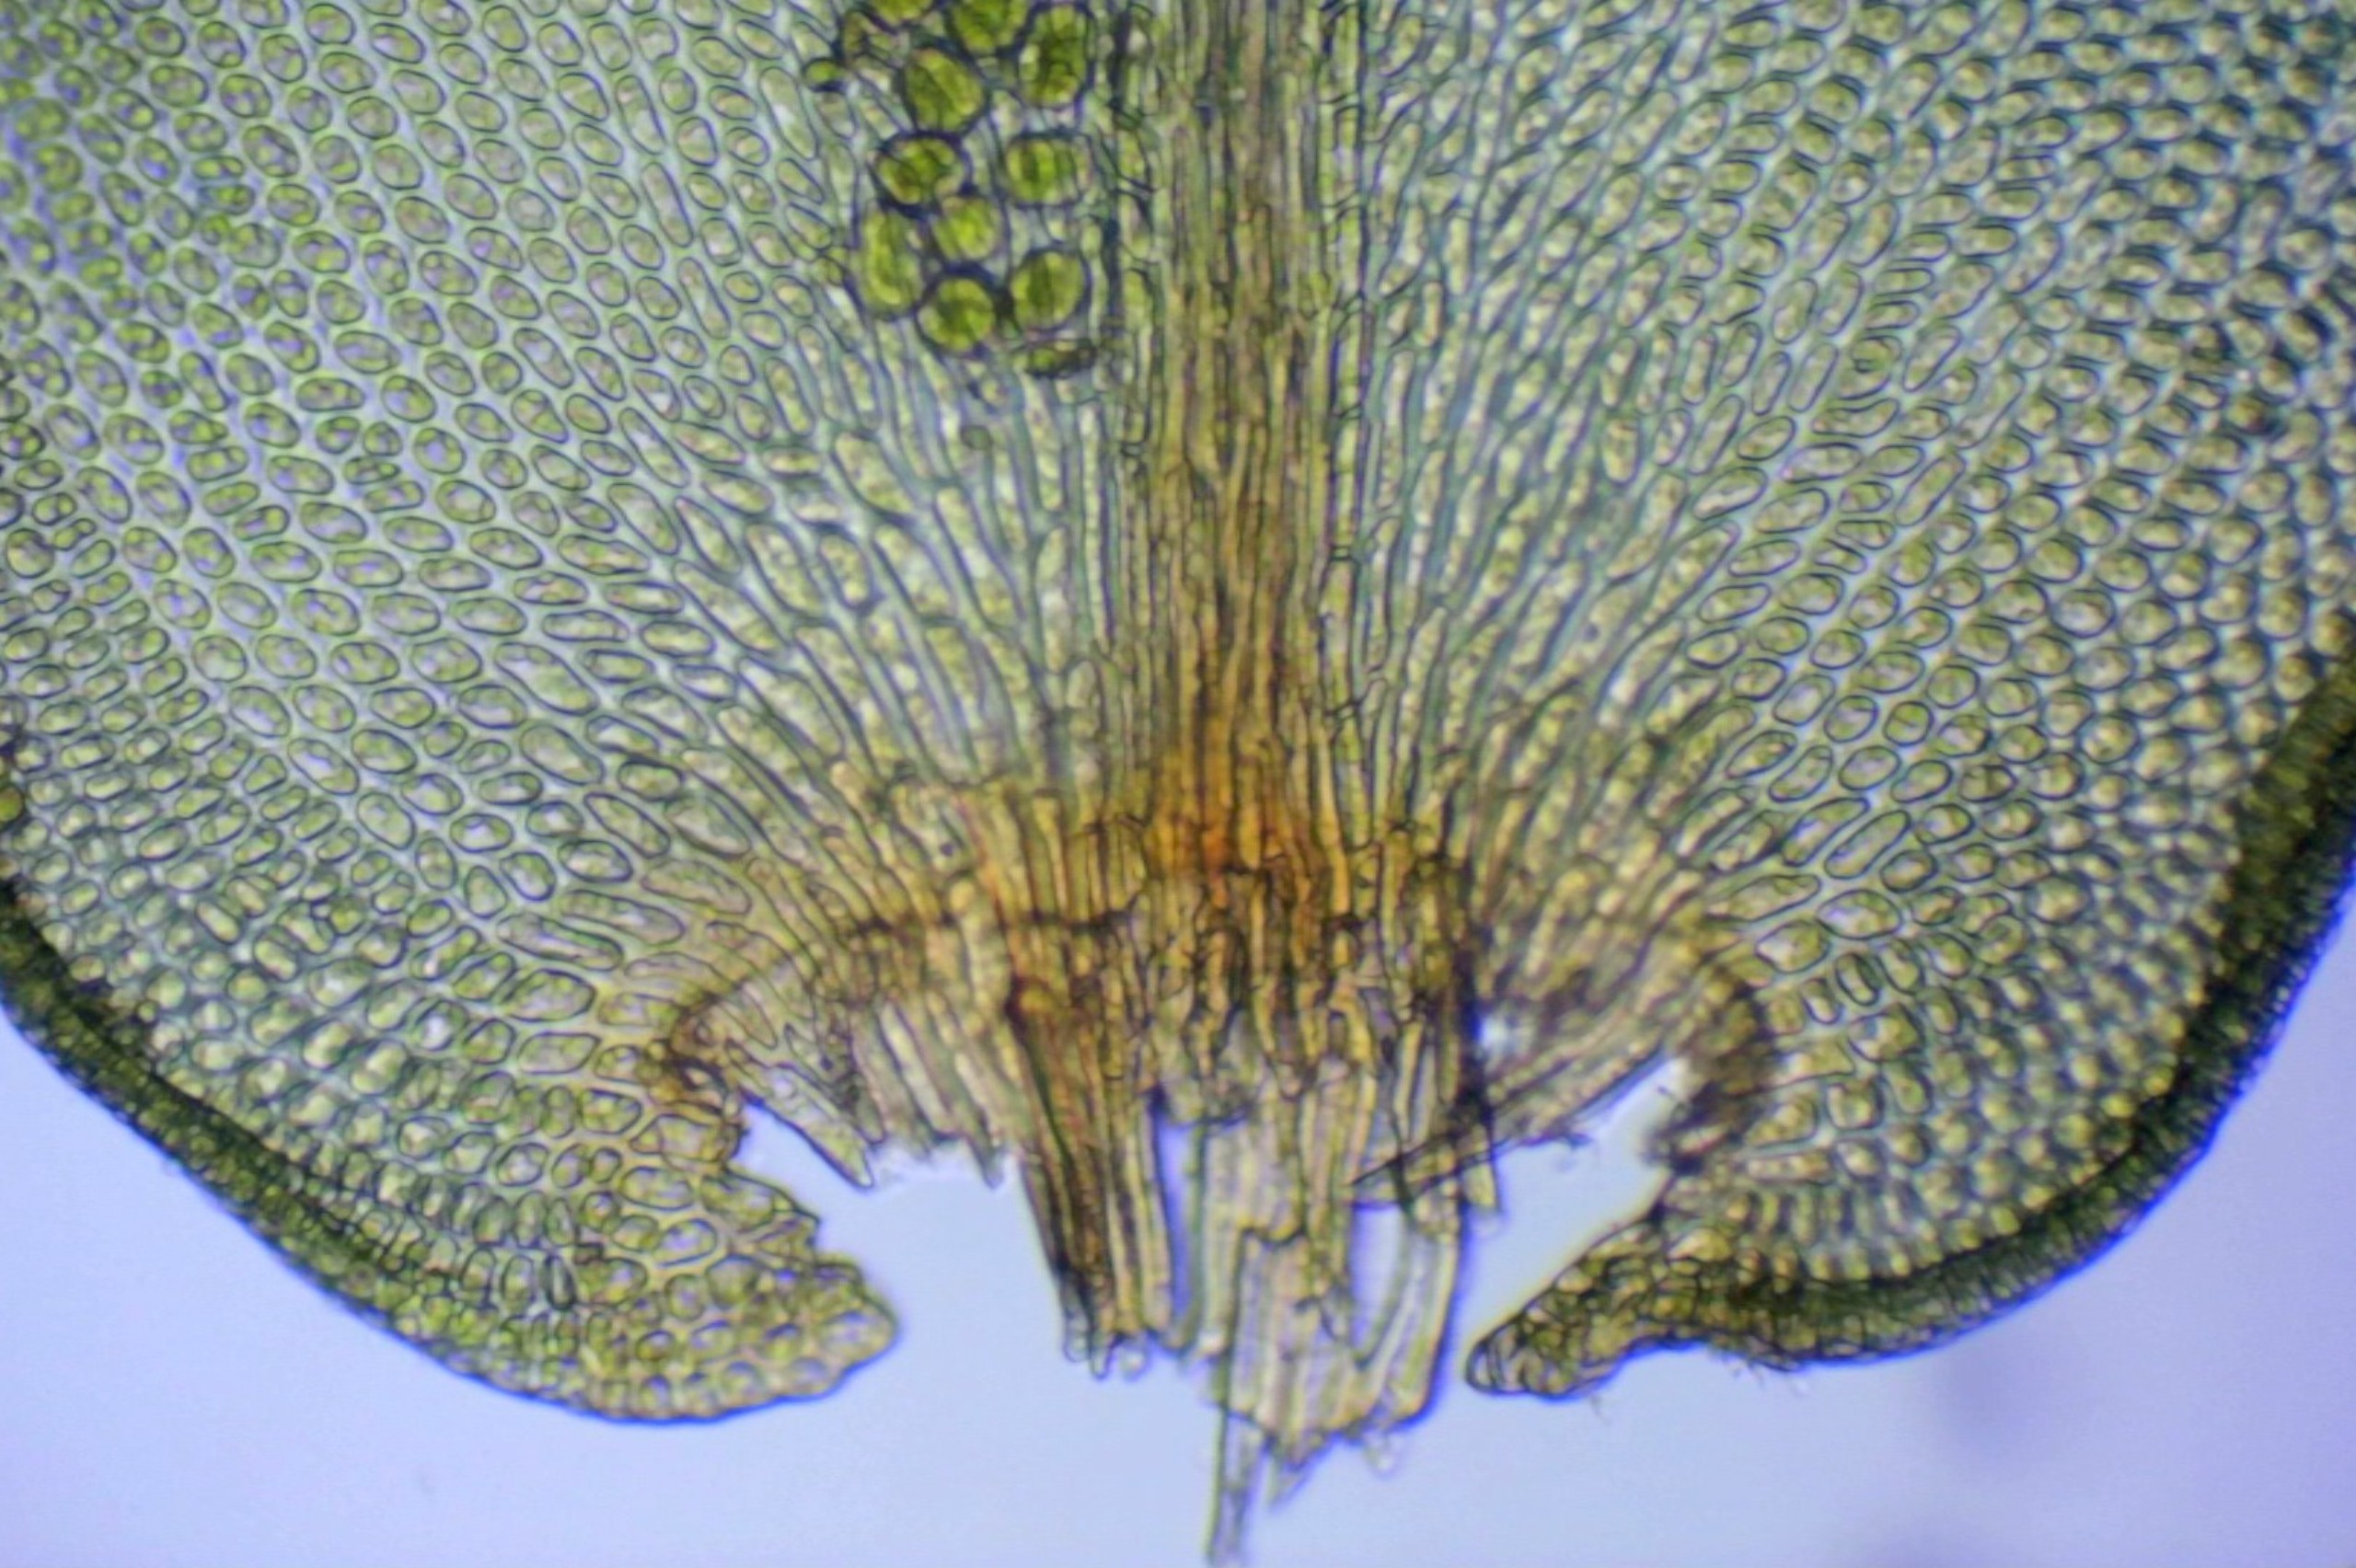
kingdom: Plantae
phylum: Bryophyta
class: Bryopsida
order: Hypnales
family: Cryphaeaceae
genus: Cryphaea
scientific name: Cryphaea heteromalla
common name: Bark-dækmos
